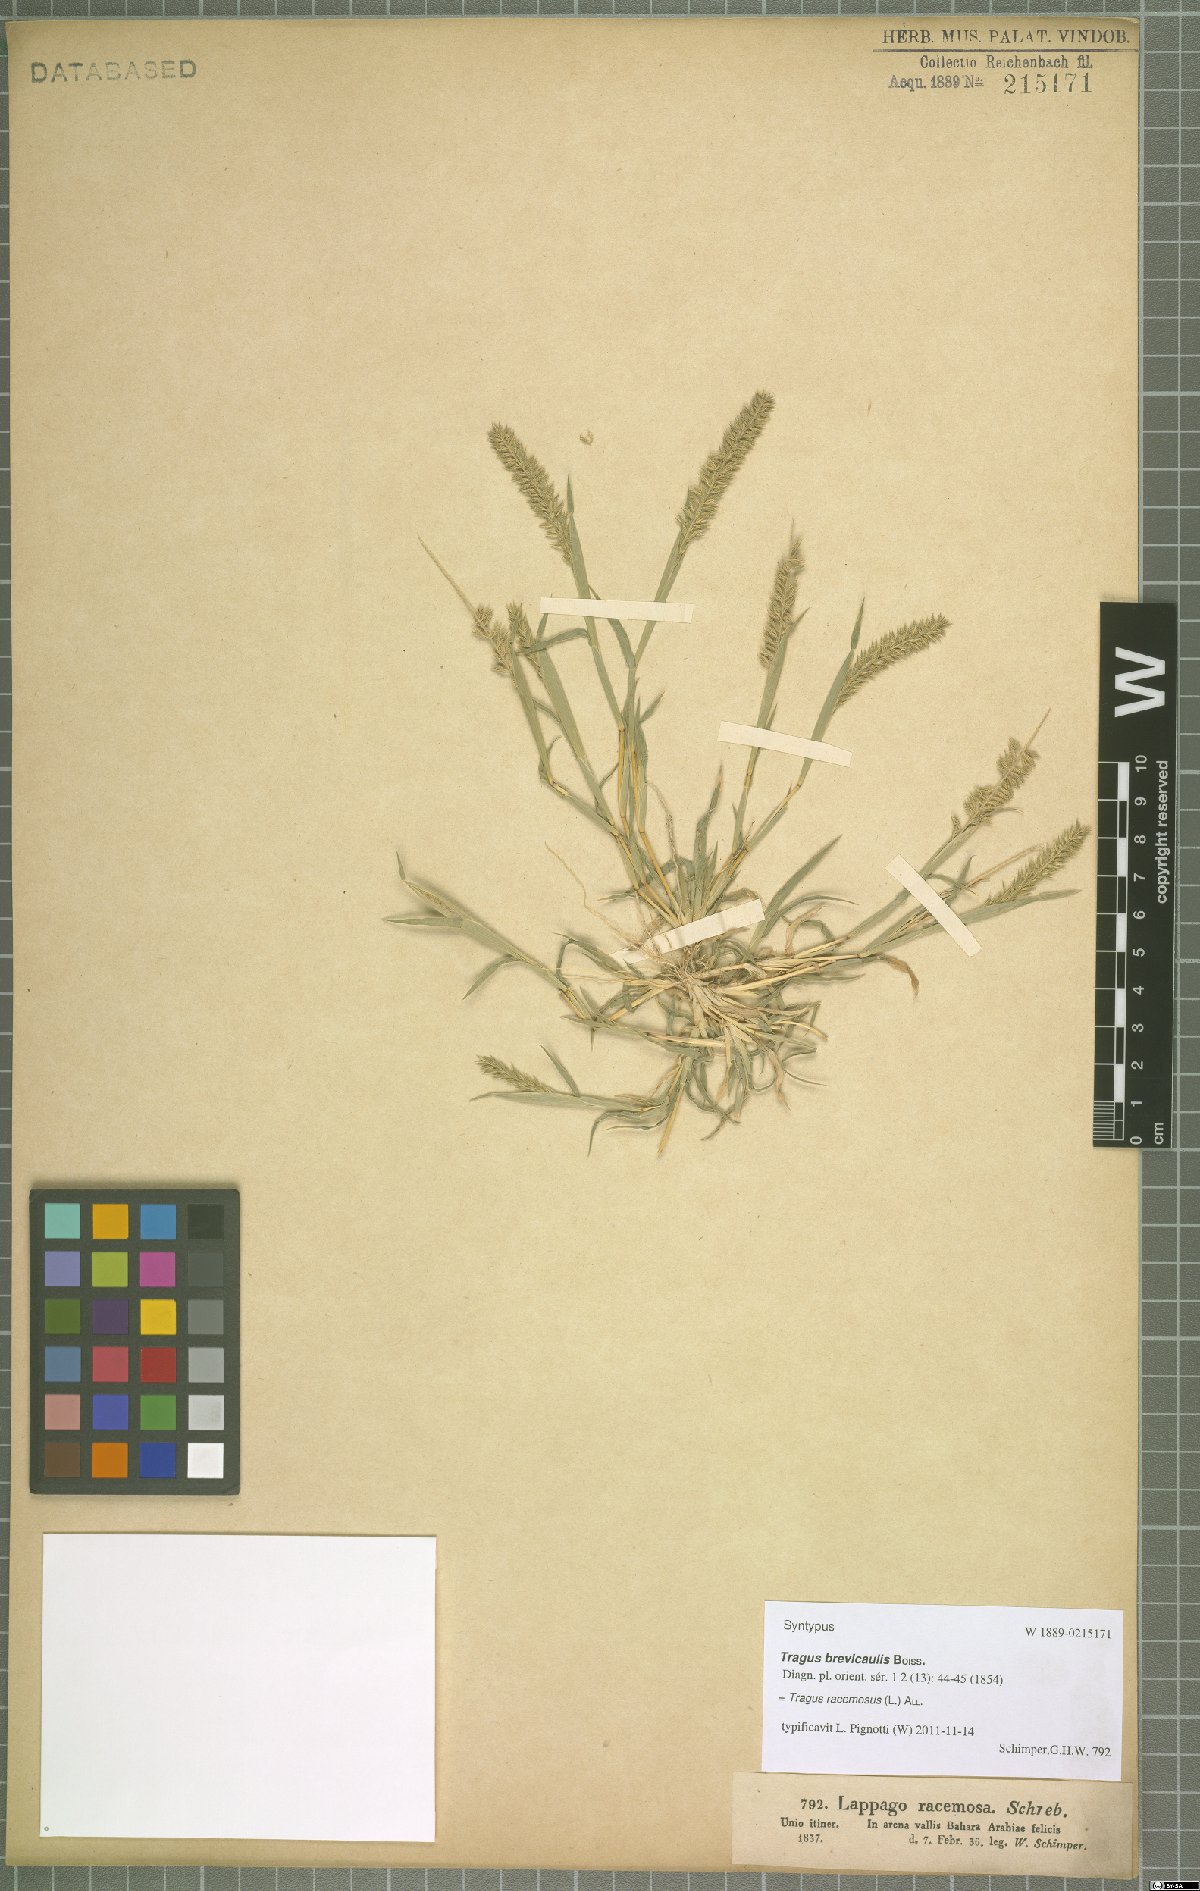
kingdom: Plantae
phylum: Tracheophyta
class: Liliopsida
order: Poales
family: Poaceae
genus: Tragus
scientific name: Tragus racemosus
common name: European bur-grass
